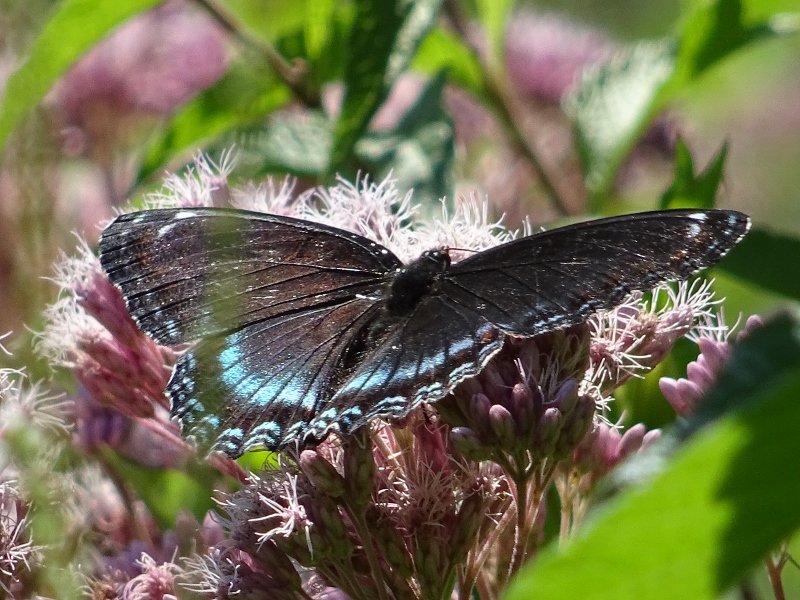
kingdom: Animalia
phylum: Arthropoda
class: Insecta
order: Lepidoptera
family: Nymphalidae
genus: Limenitis
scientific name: Limenitis astyanax
